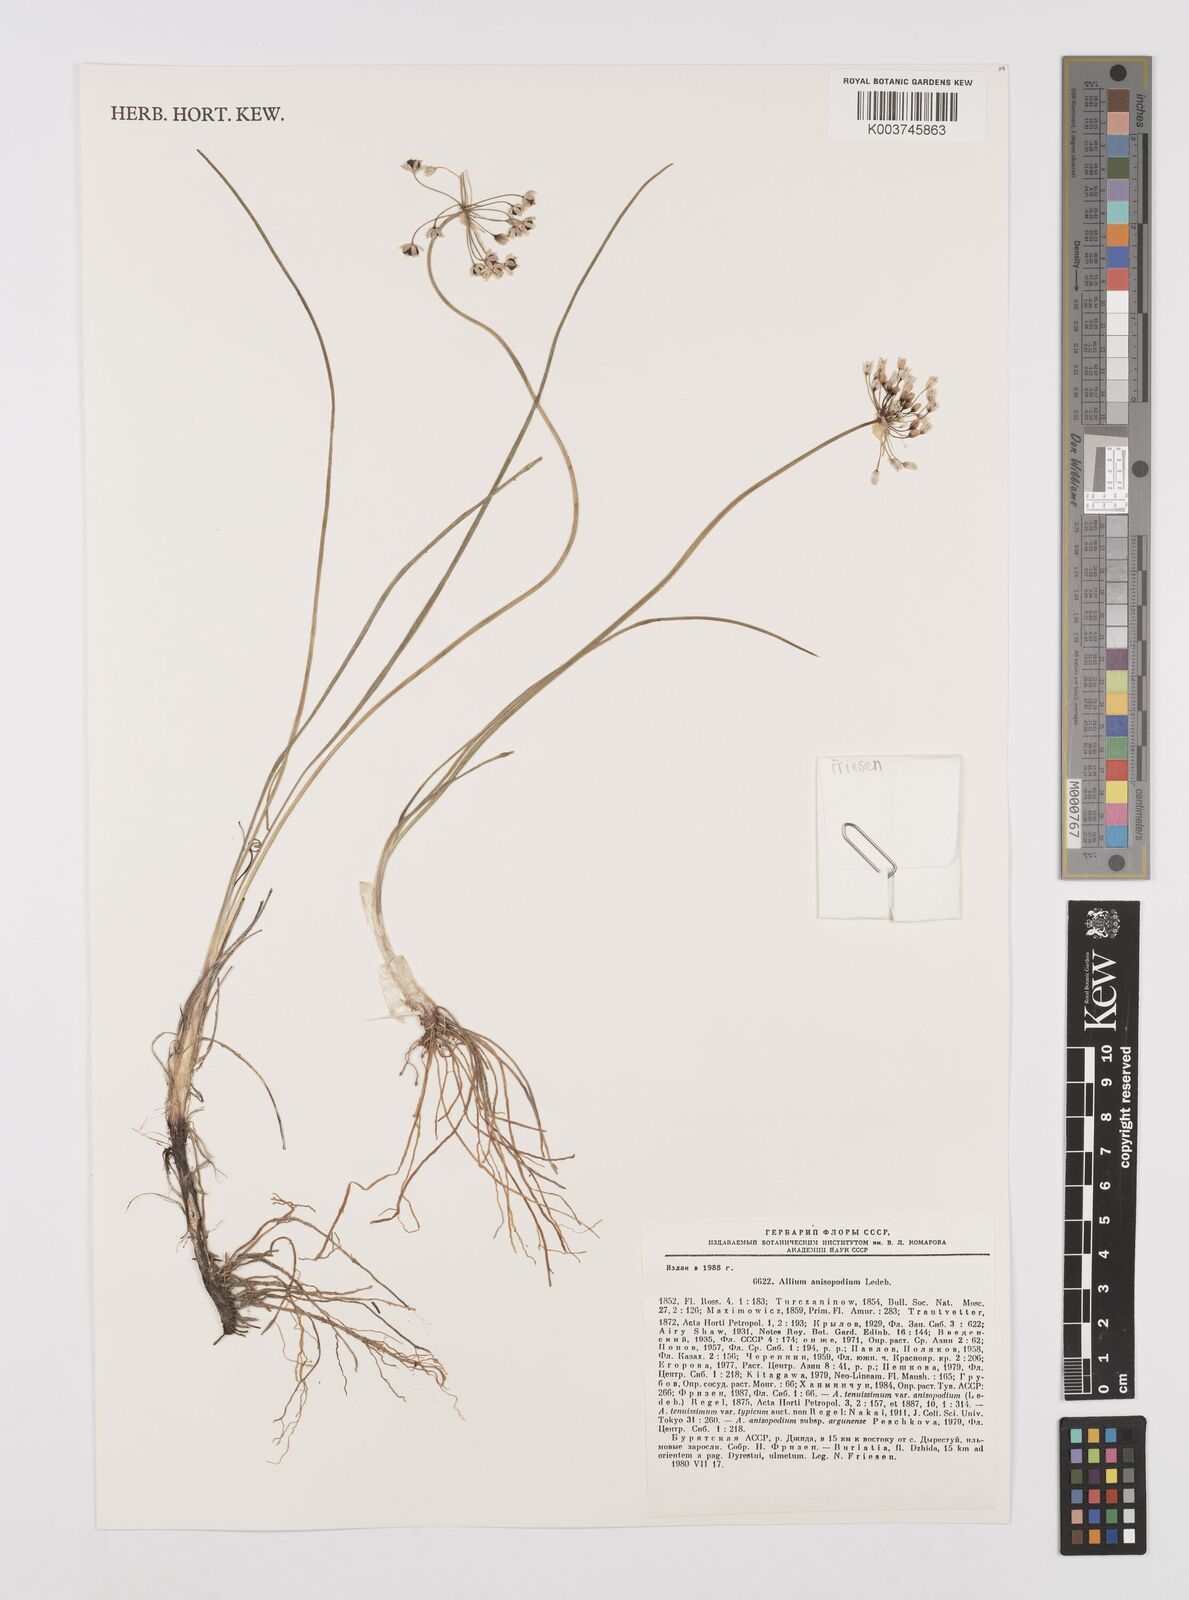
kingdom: Plantae
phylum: Tracheophyta
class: Liliopsida
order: Asparagales
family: Amaryllidaceae
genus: Allium
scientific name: Allium anisopodium
